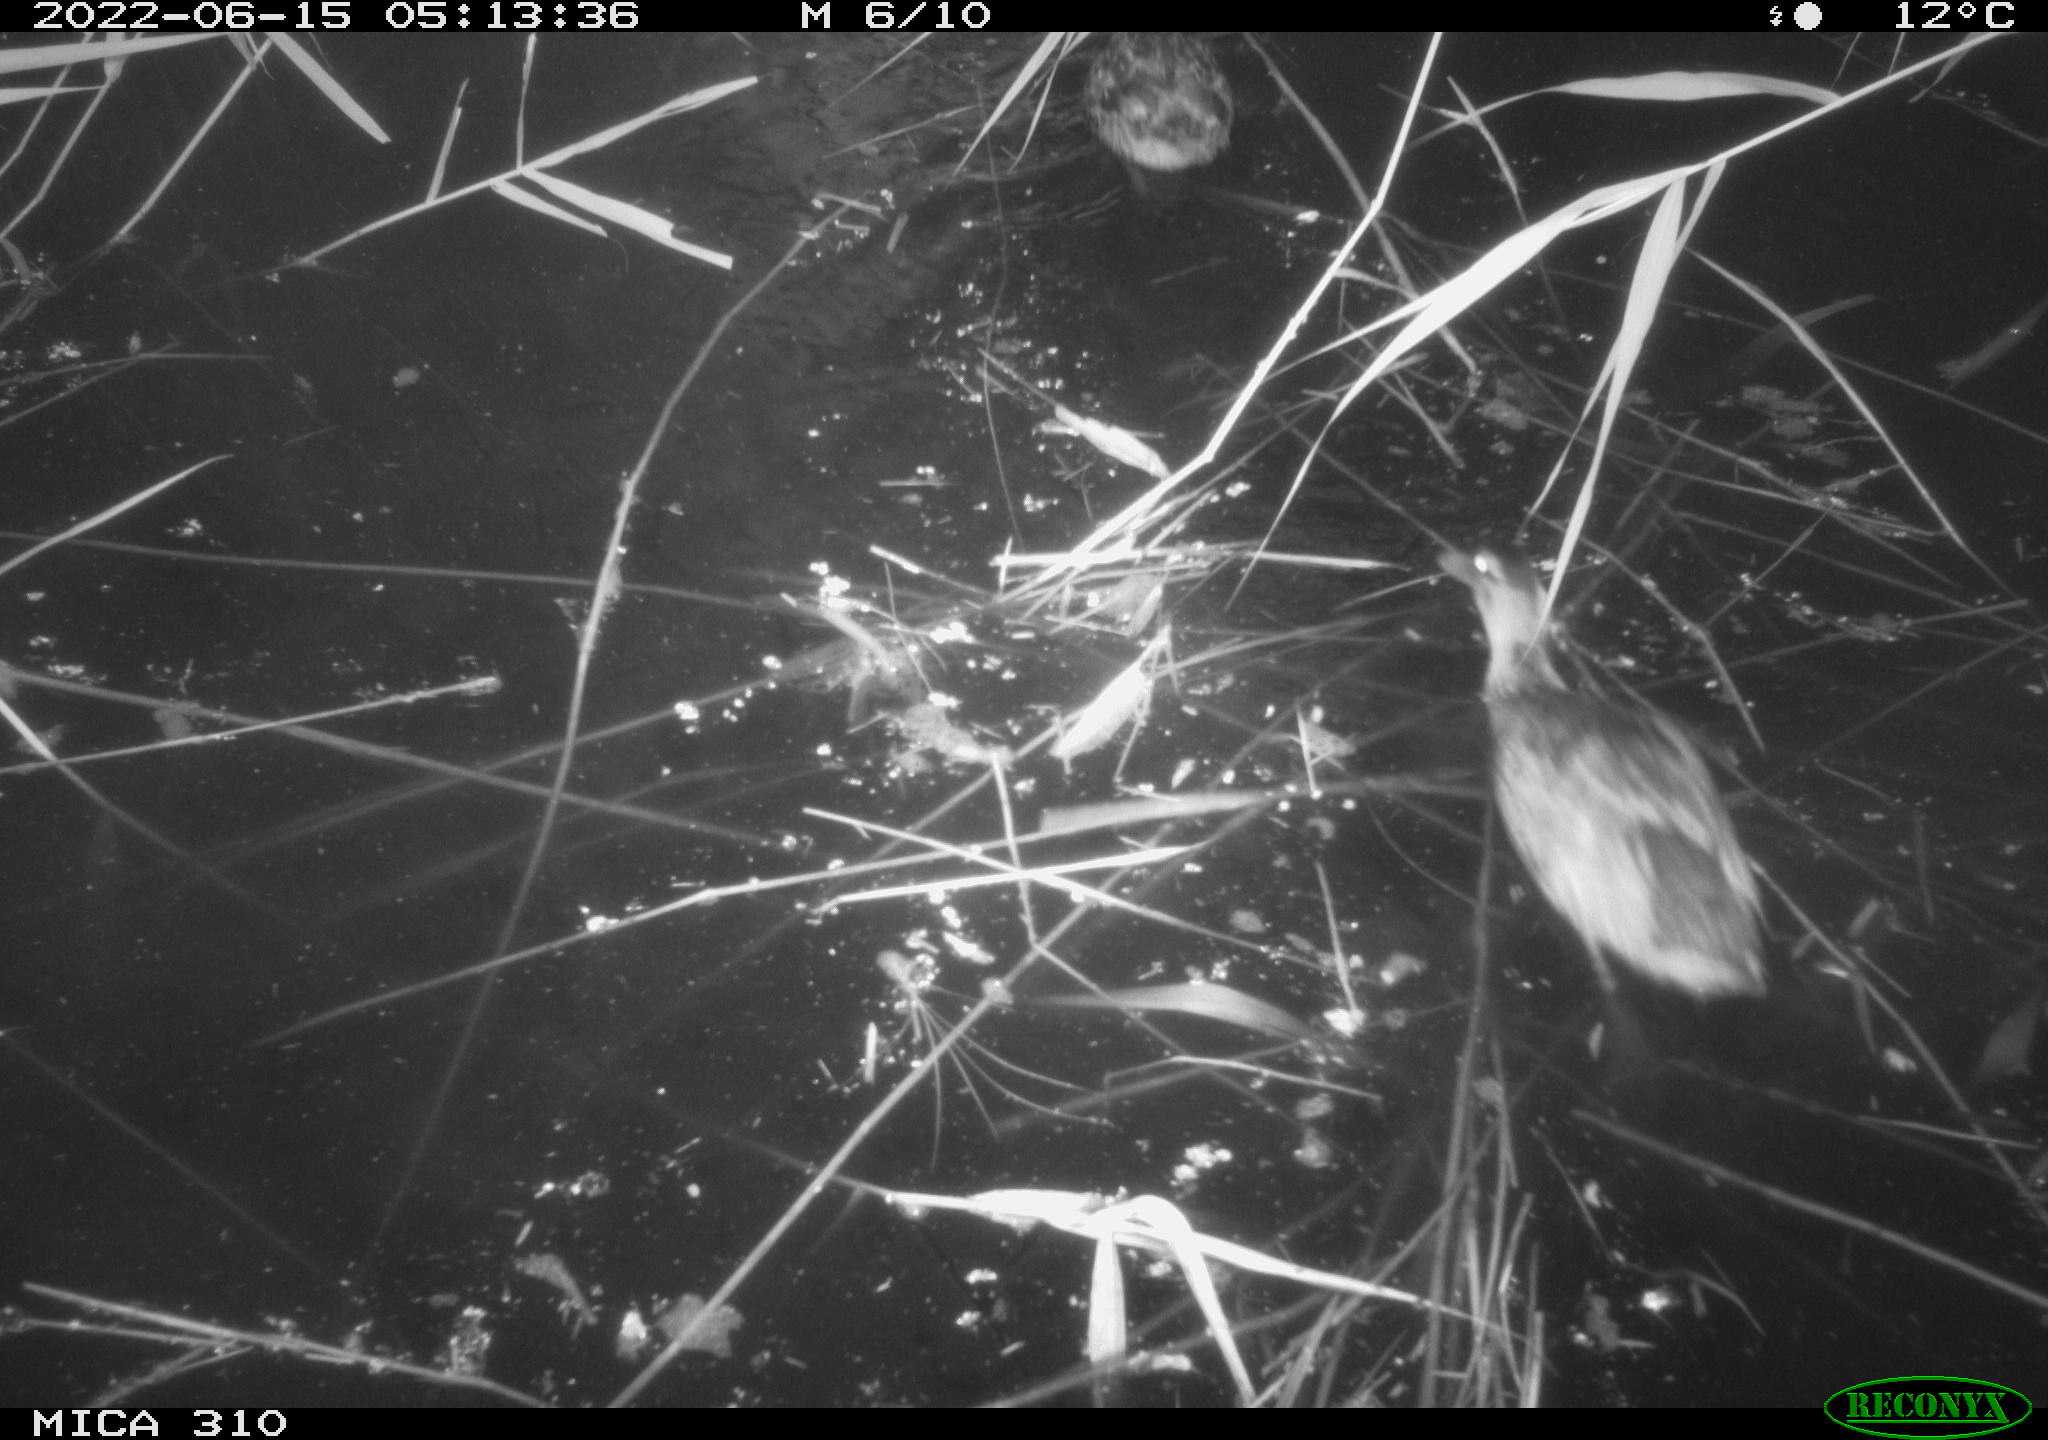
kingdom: Animalia
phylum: Chordata
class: Aves
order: Anseriformes
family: Anatidae
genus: Anas
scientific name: Anas platyrhynchos
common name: Mallard
